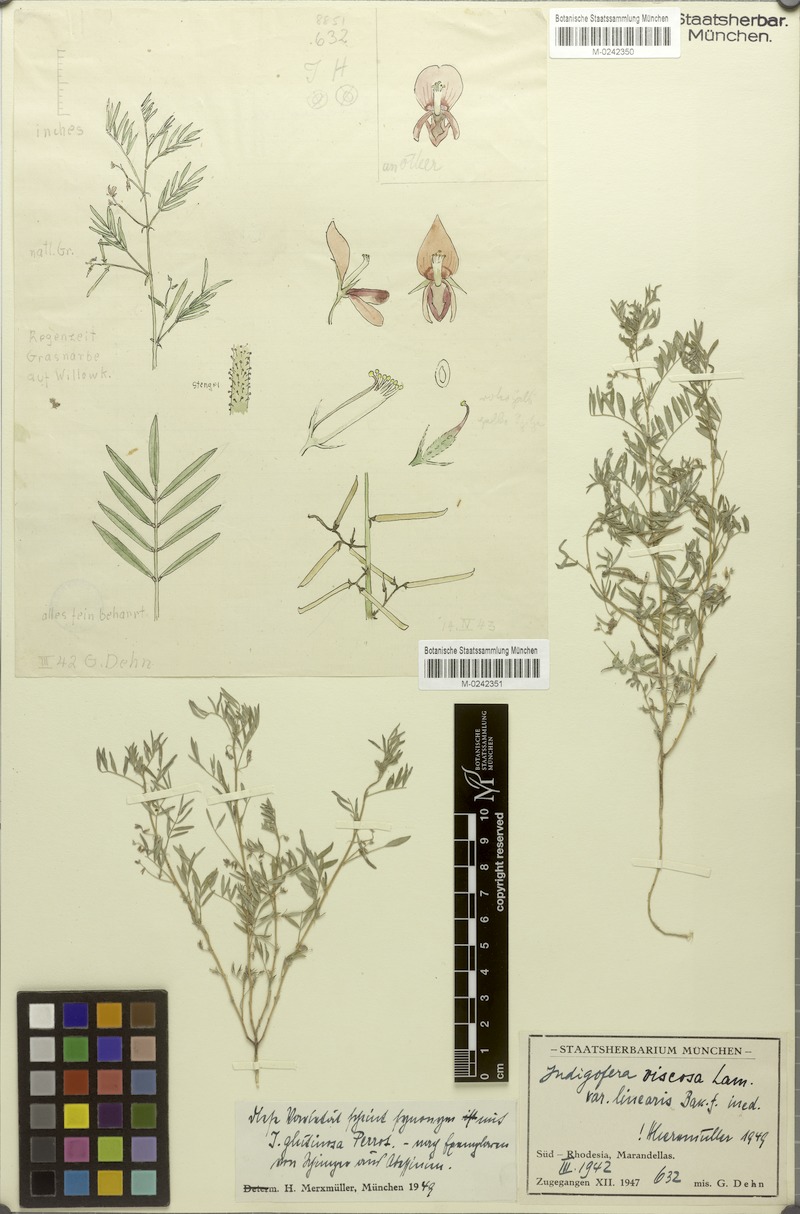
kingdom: Plantae
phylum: Tracheophyta
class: Magnoliopsida
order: Fabales
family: Fabaceae
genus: Indigofera
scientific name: Indigofera brachynema
